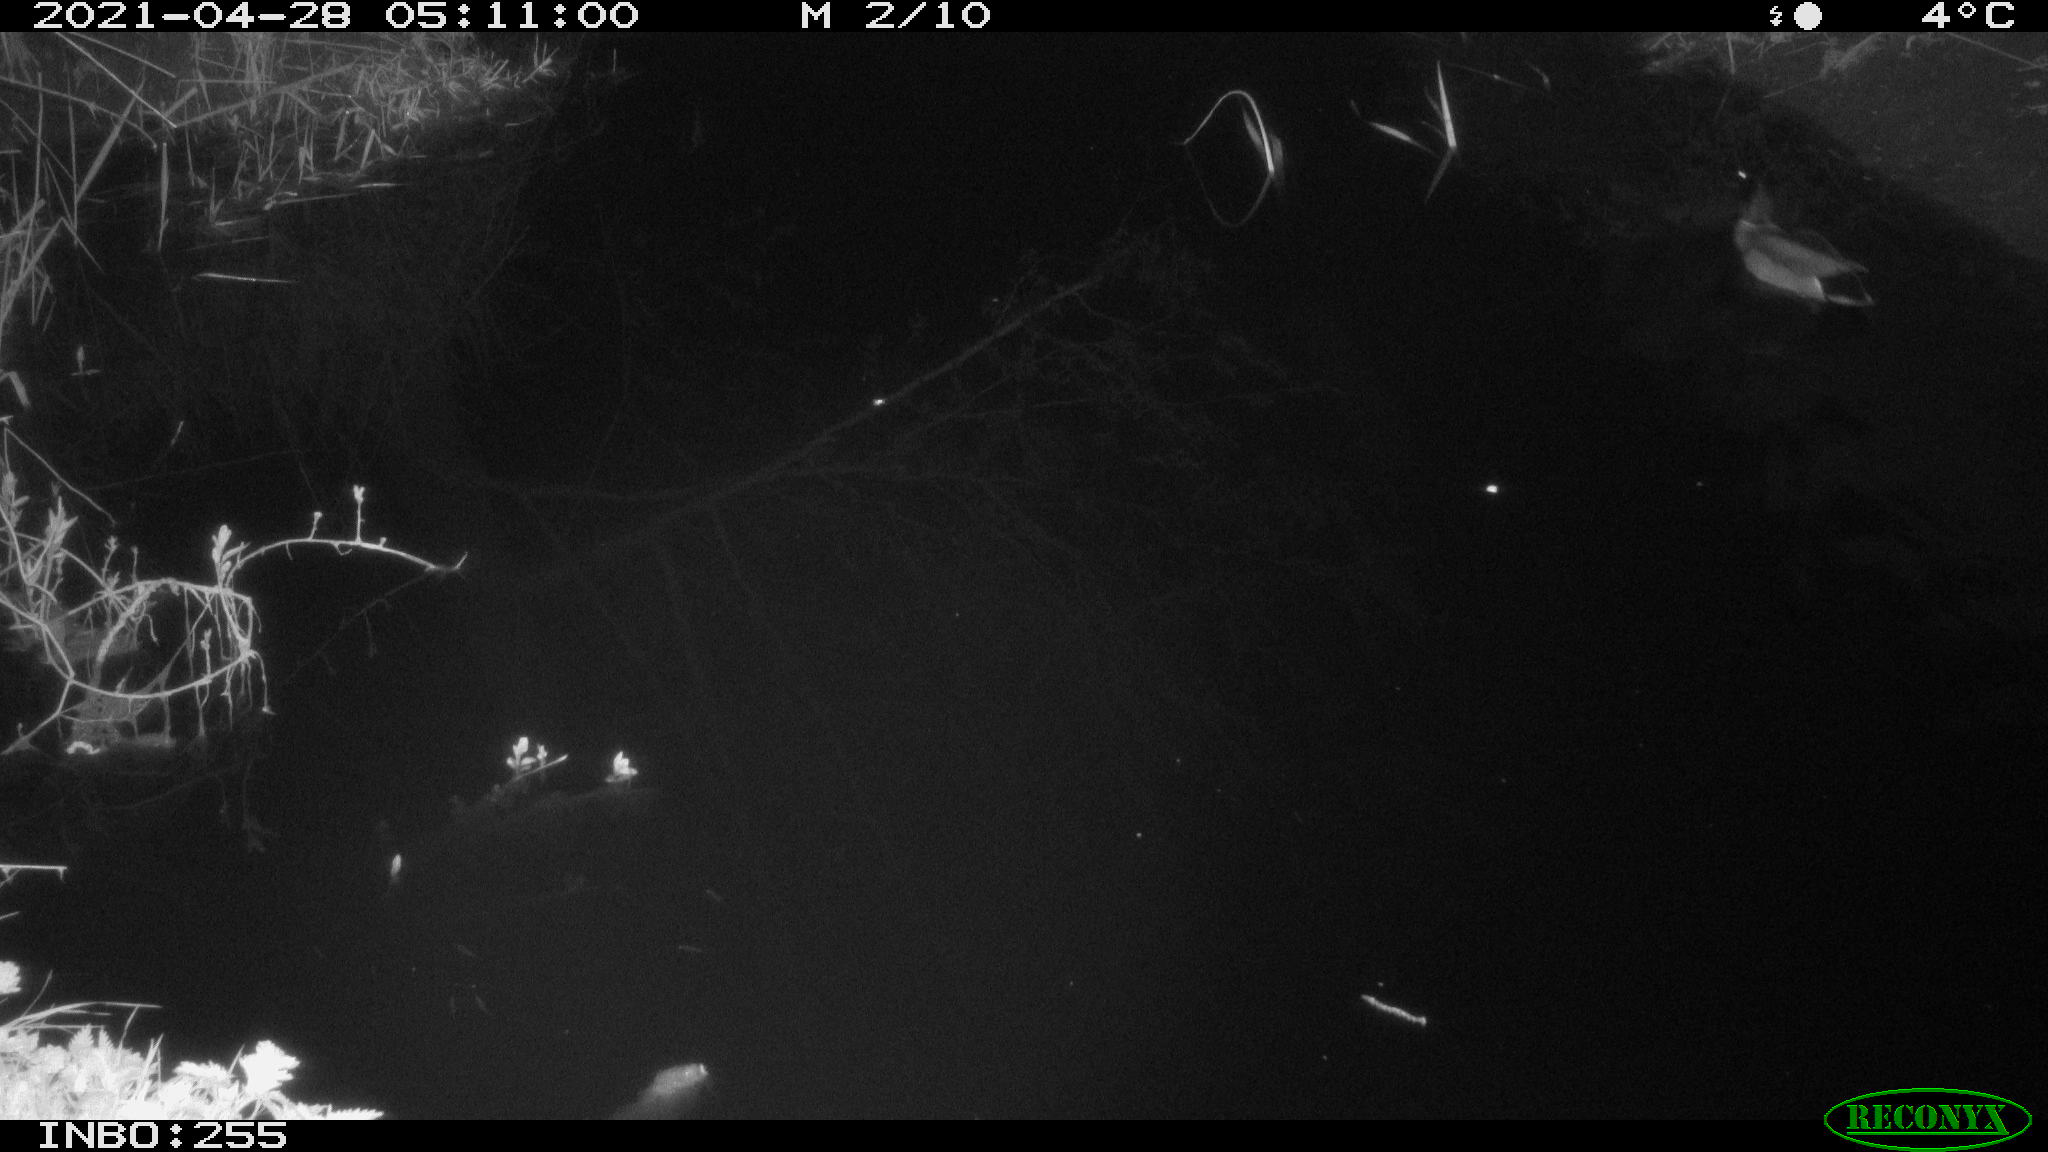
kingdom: Animalia
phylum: Chordata
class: Aves
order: Anseriformes
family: Anatidae
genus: Anas
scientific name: Anas platyrhynchos
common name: Mallard
